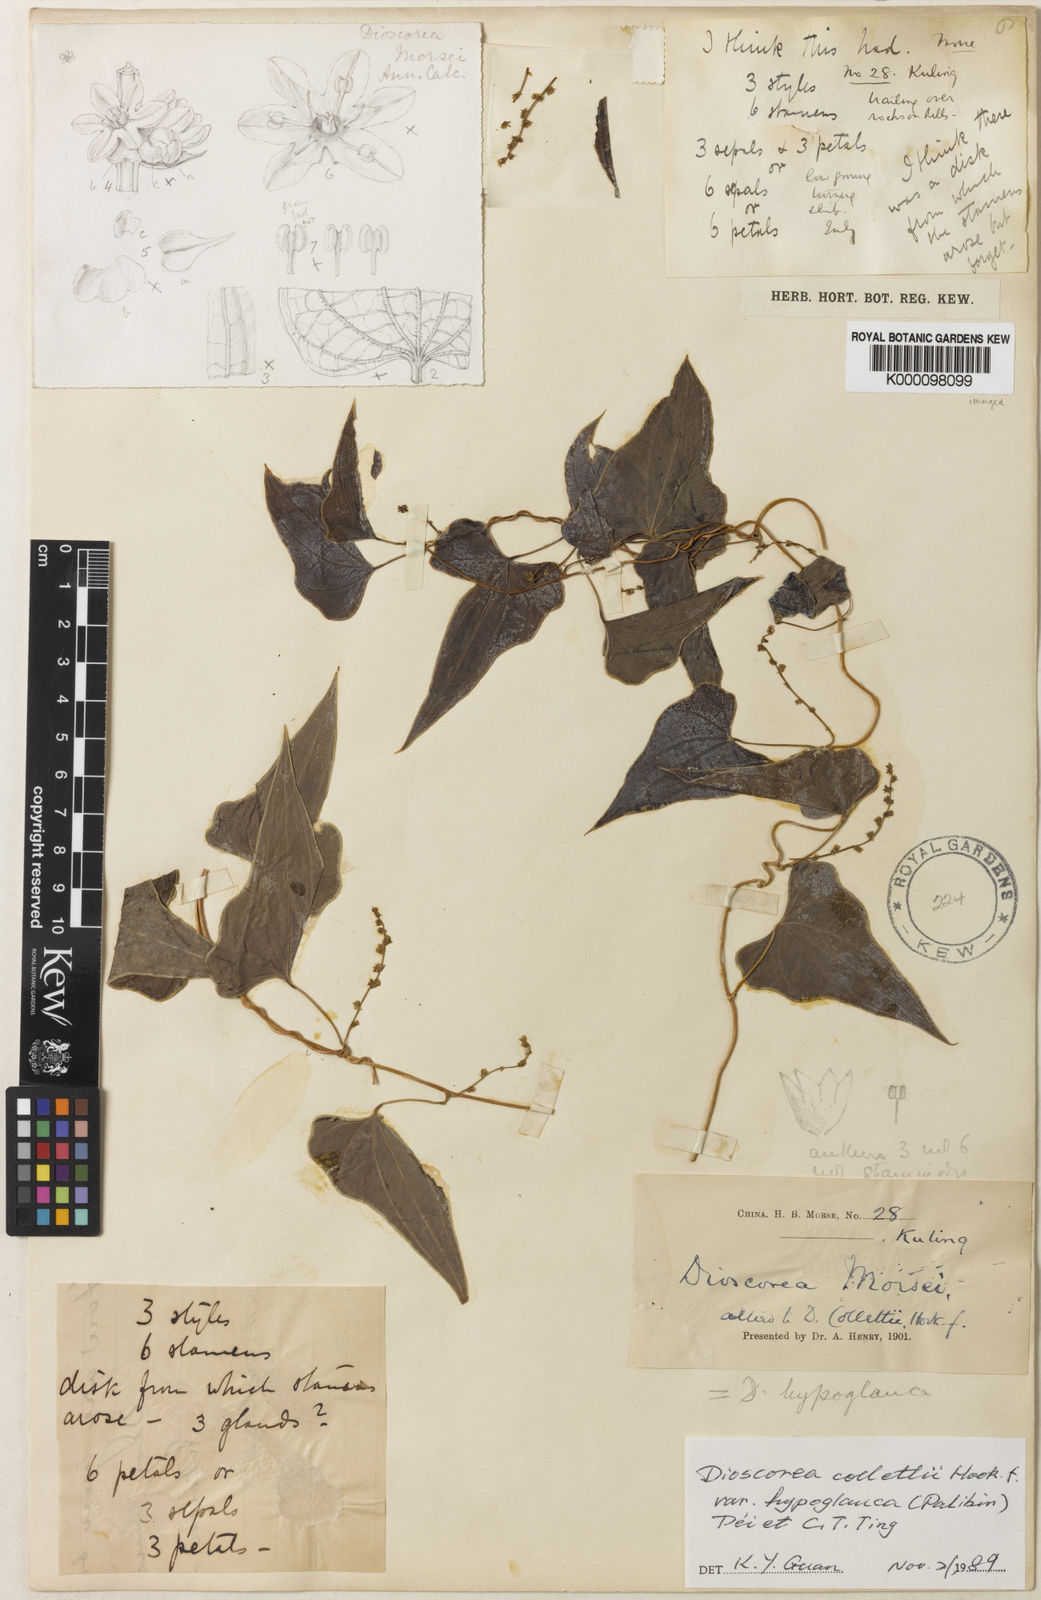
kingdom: Plantae
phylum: Tracheophyta
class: Liliopsida
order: Dioscoreales
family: Dioscoreaceae
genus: Dioscorea
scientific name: Dioscorea collettii
